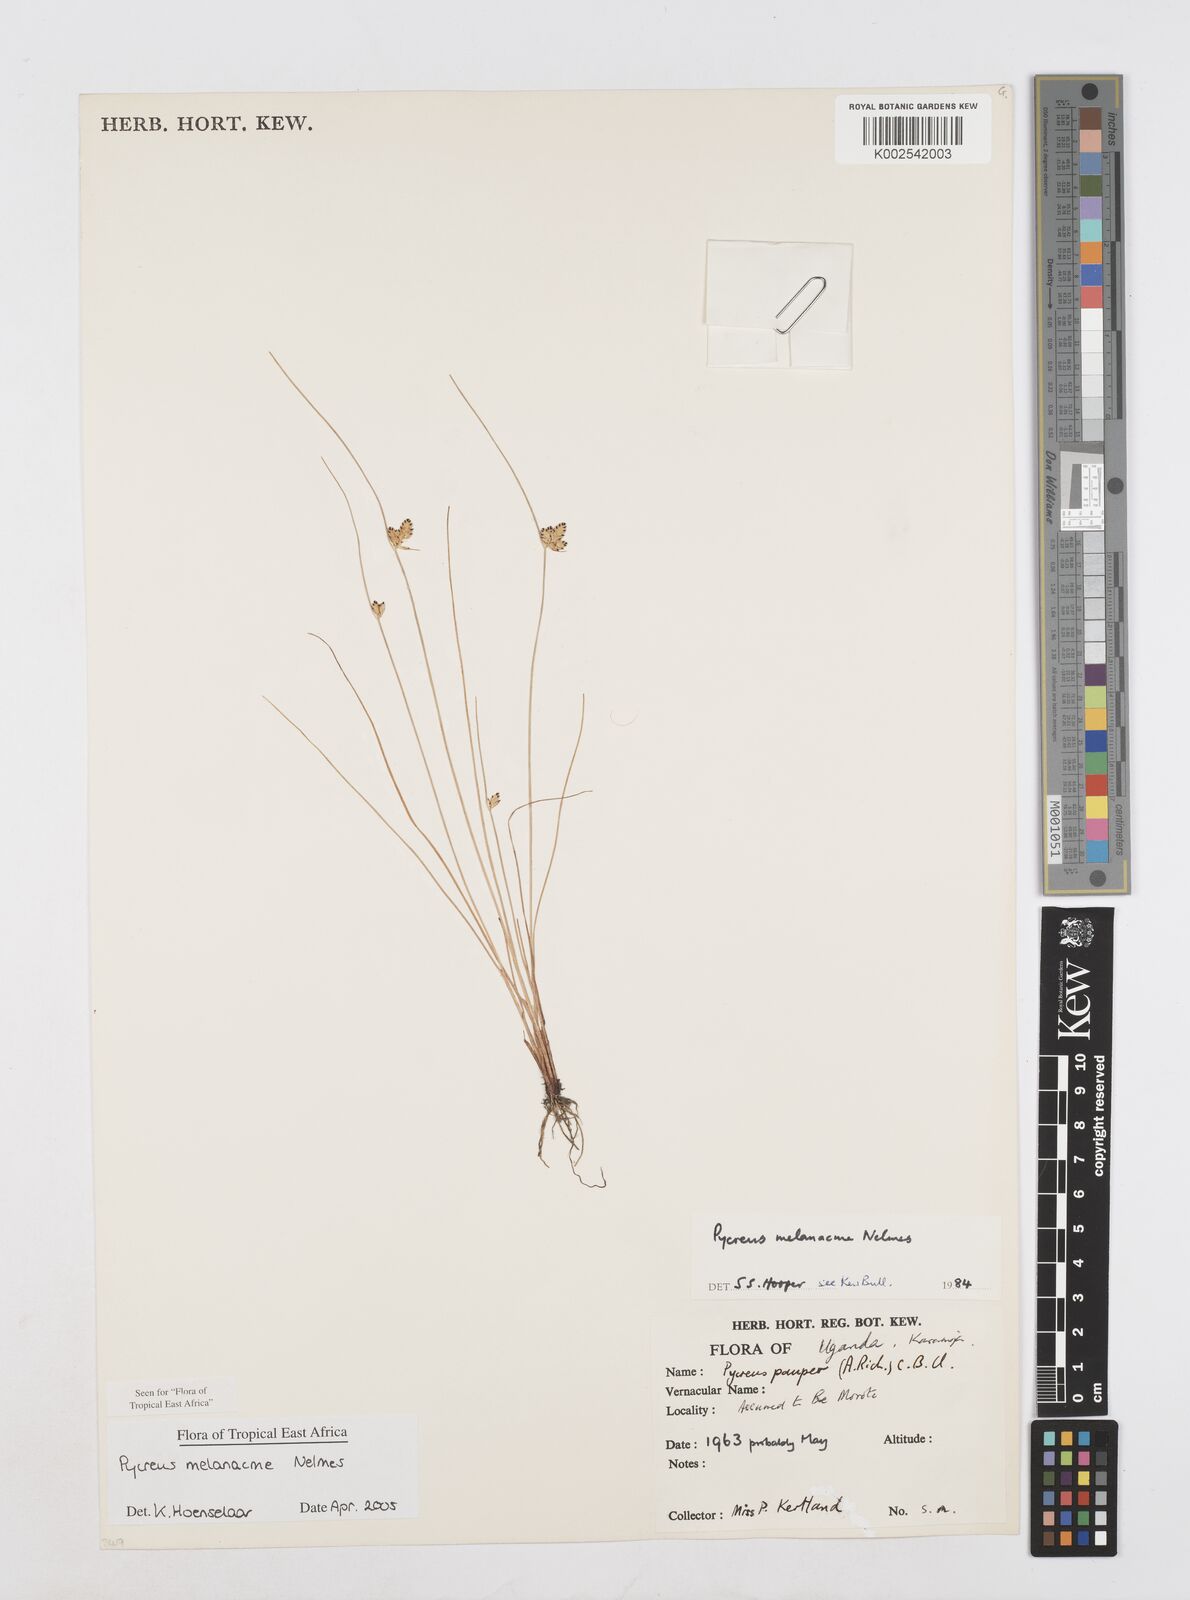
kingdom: Plantae
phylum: Tracheophyta
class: Liliopsida
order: Poales
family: Cyperaceae
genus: Cyperus
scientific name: Cyperus melanacme
